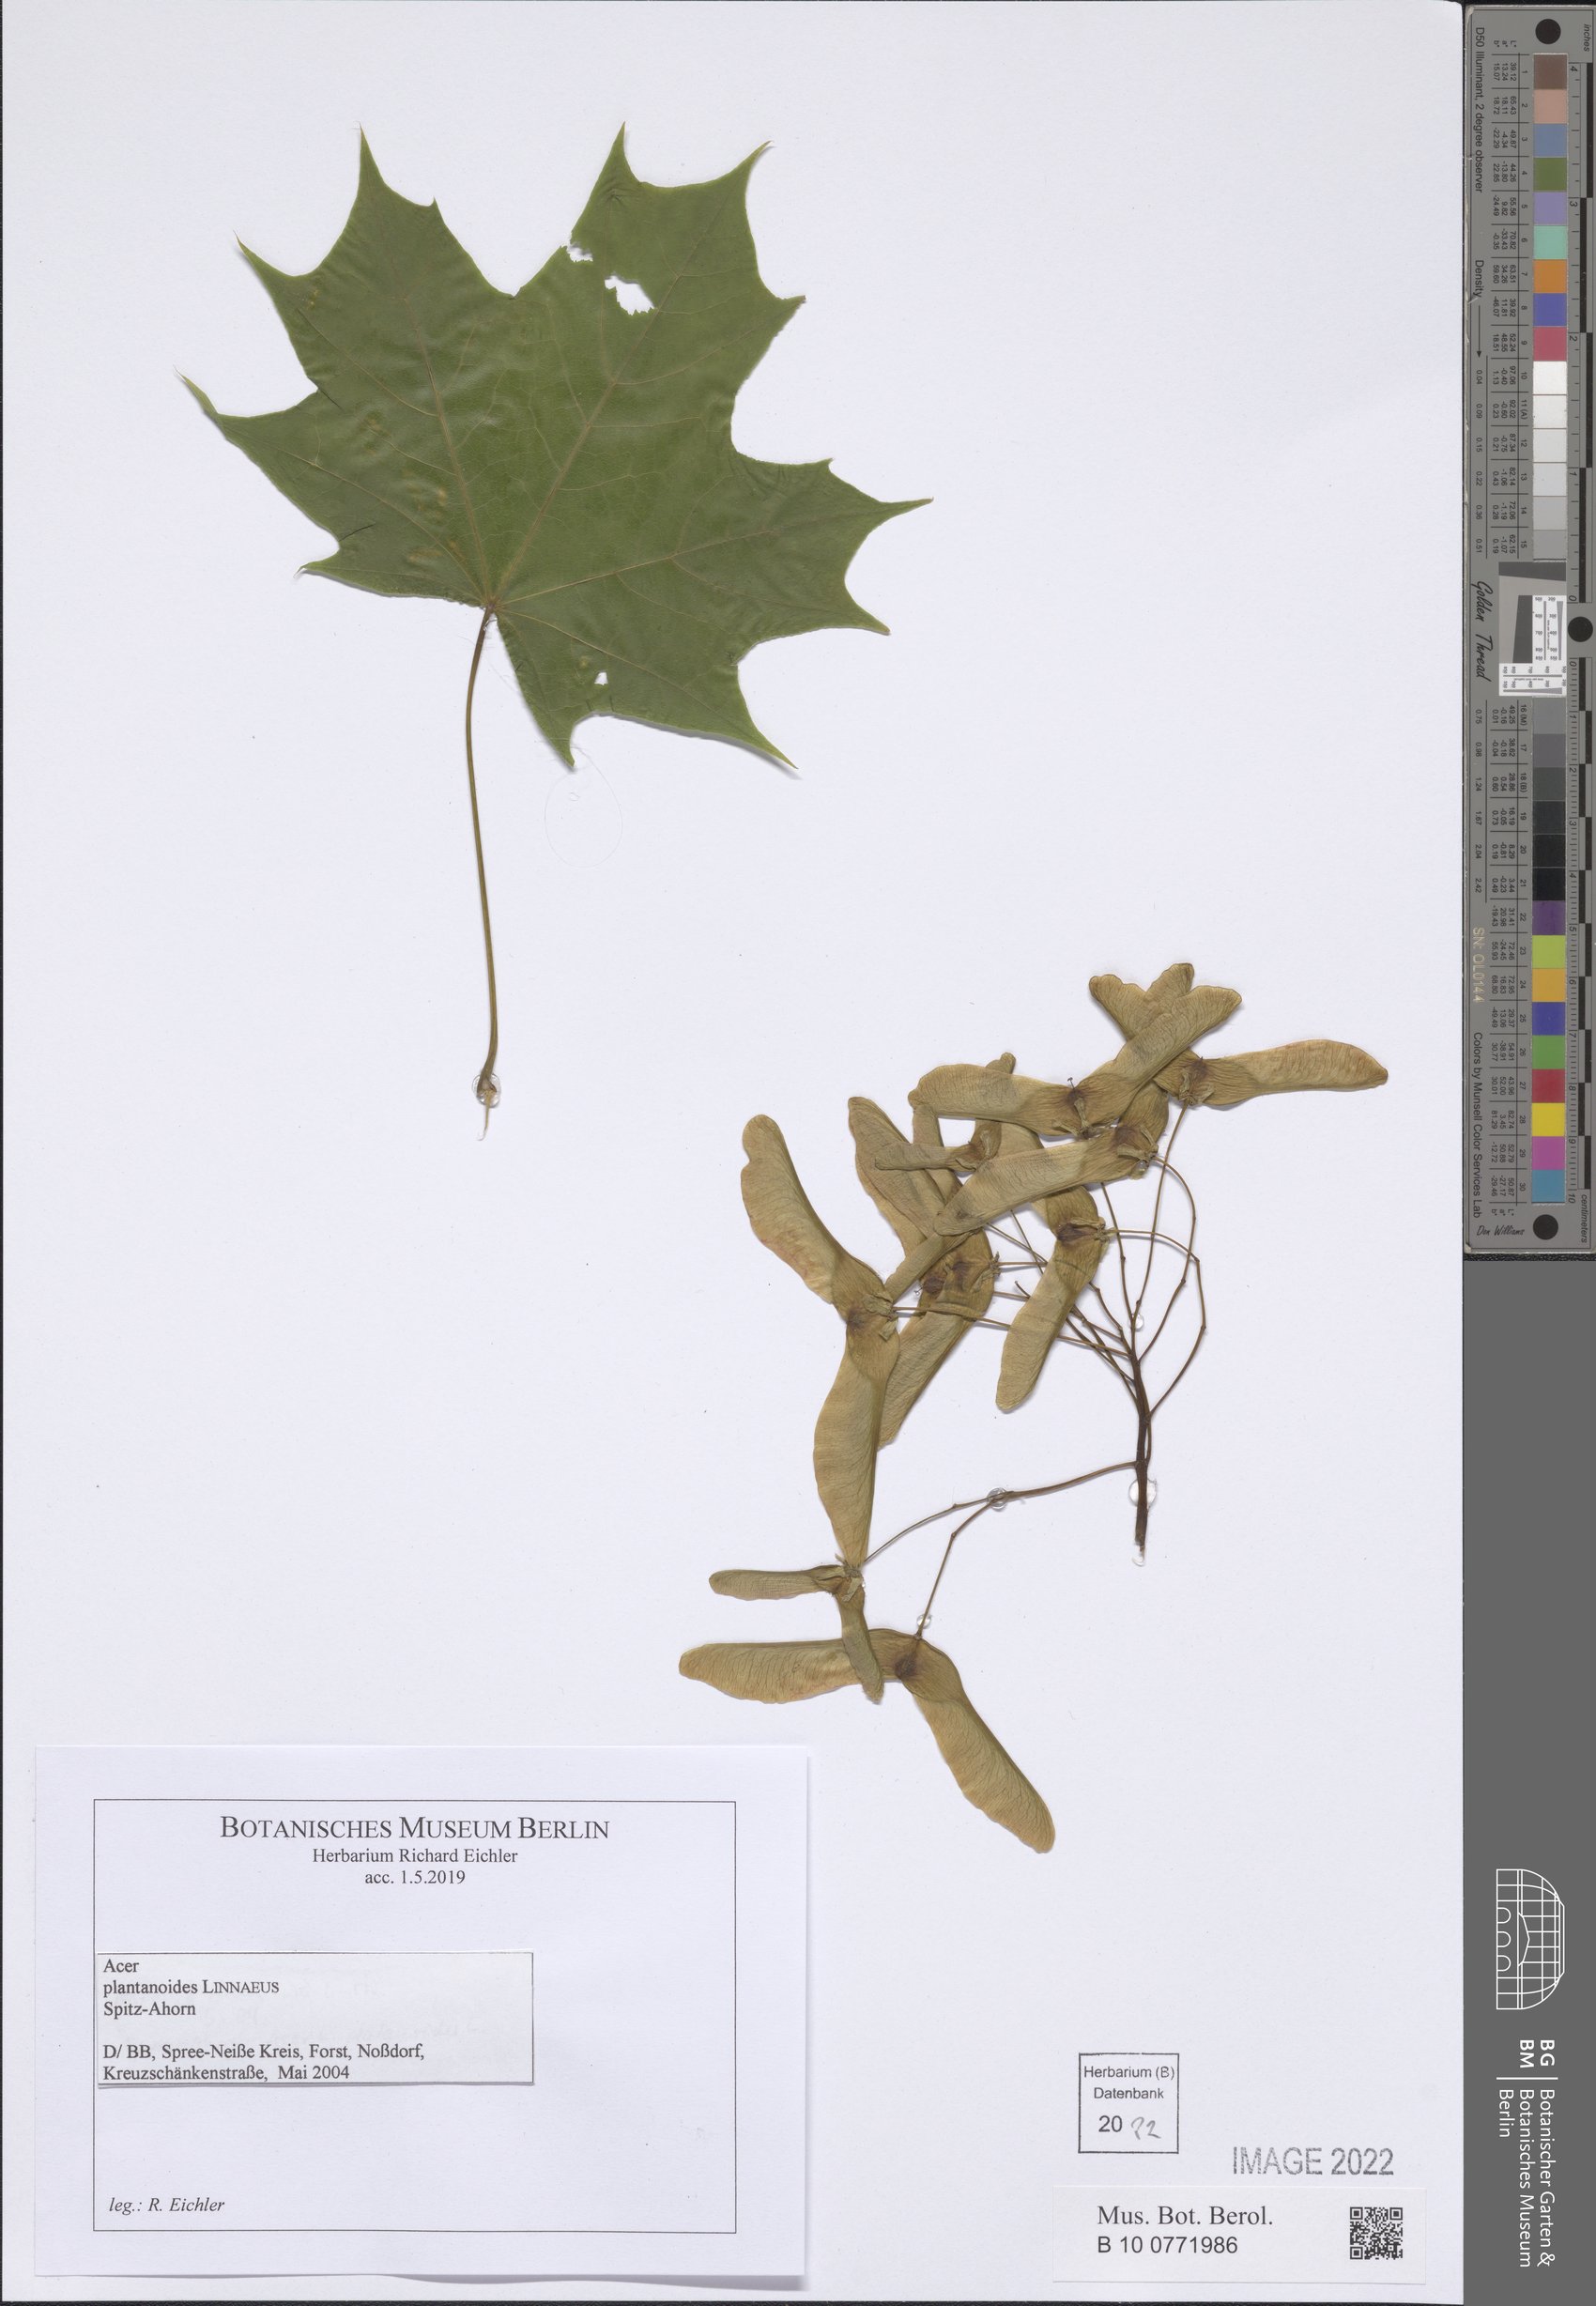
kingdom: Plantae
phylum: Tracheophyta
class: Magnoliopsida
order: Sapindales
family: Sapindaceae
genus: Acer
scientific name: Acer platanoides
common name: Norway maple
